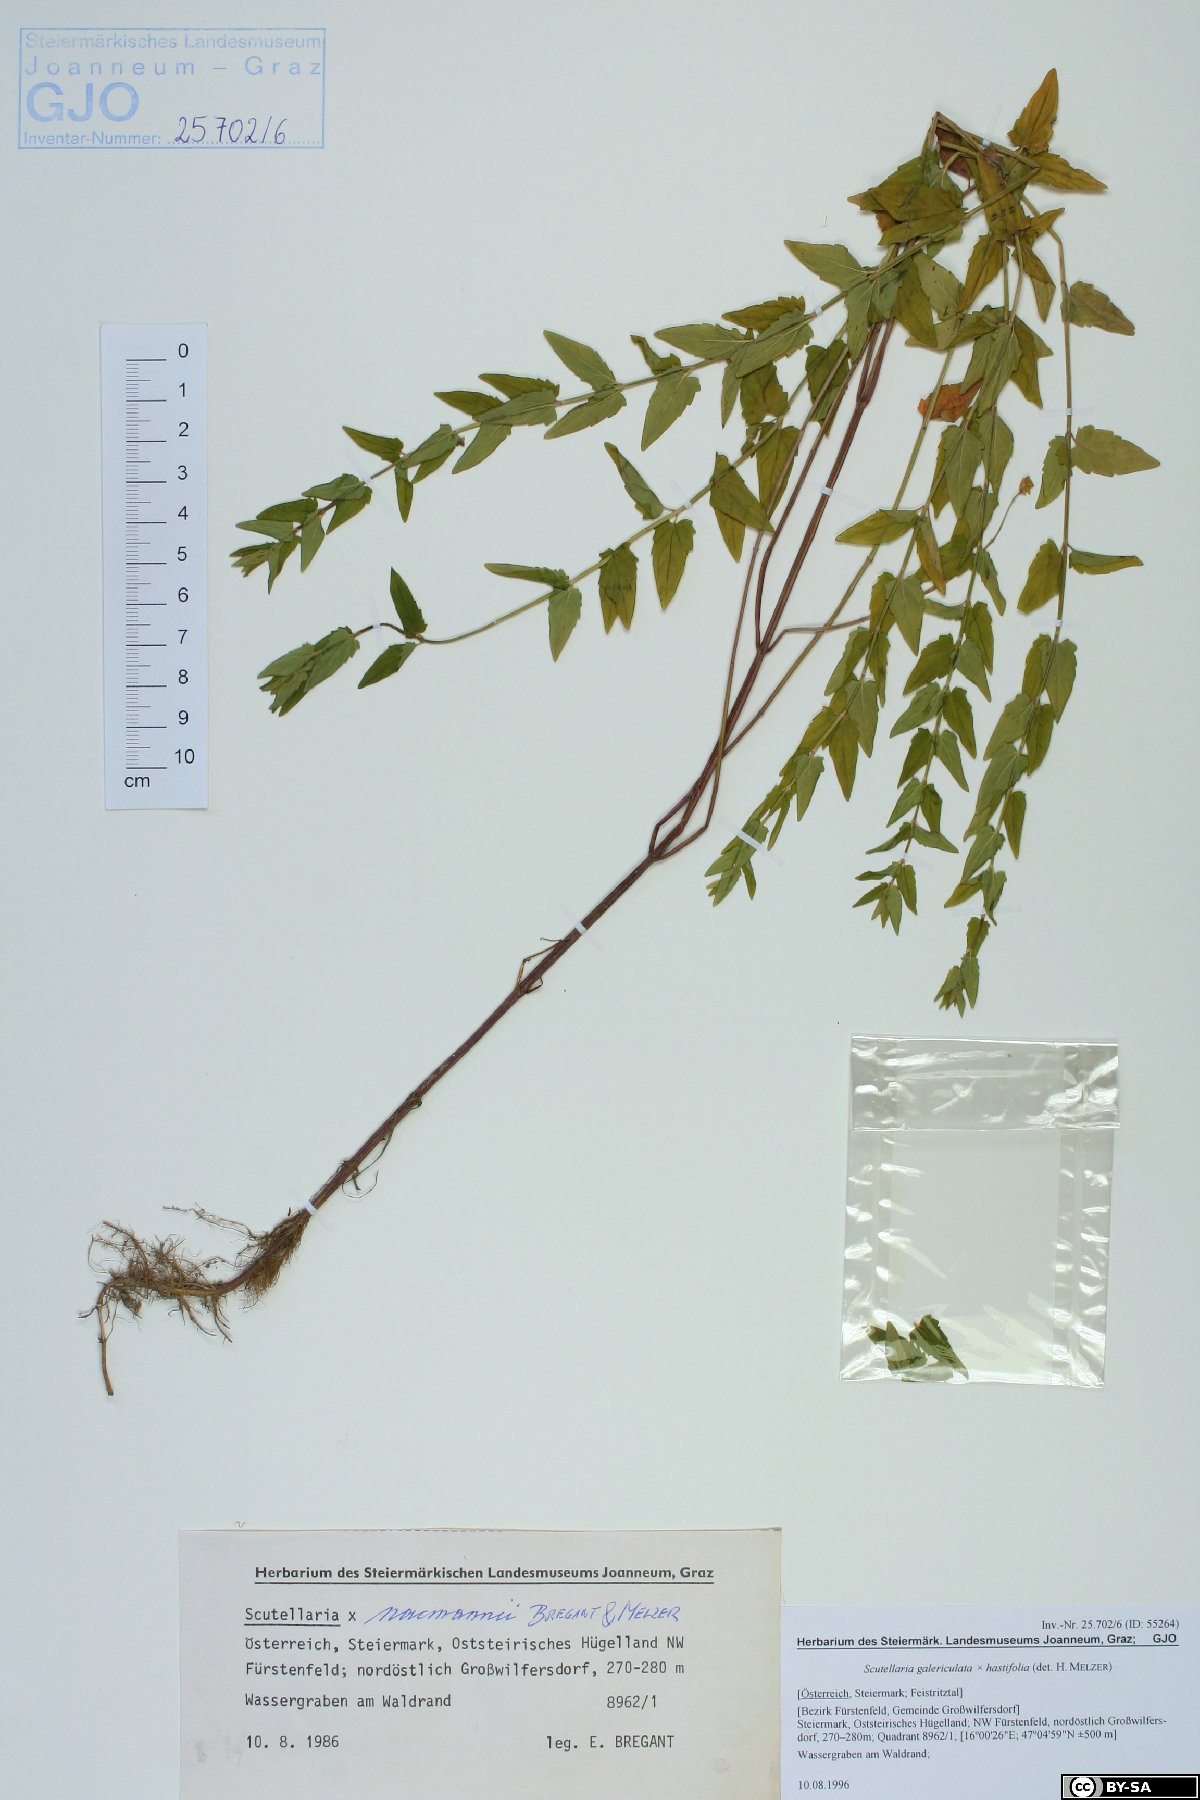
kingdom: Plantae
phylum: Tracheophyta
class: Magnoliopsida
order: Lamiales
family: Lamiaceae
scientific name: Lamiaceae
